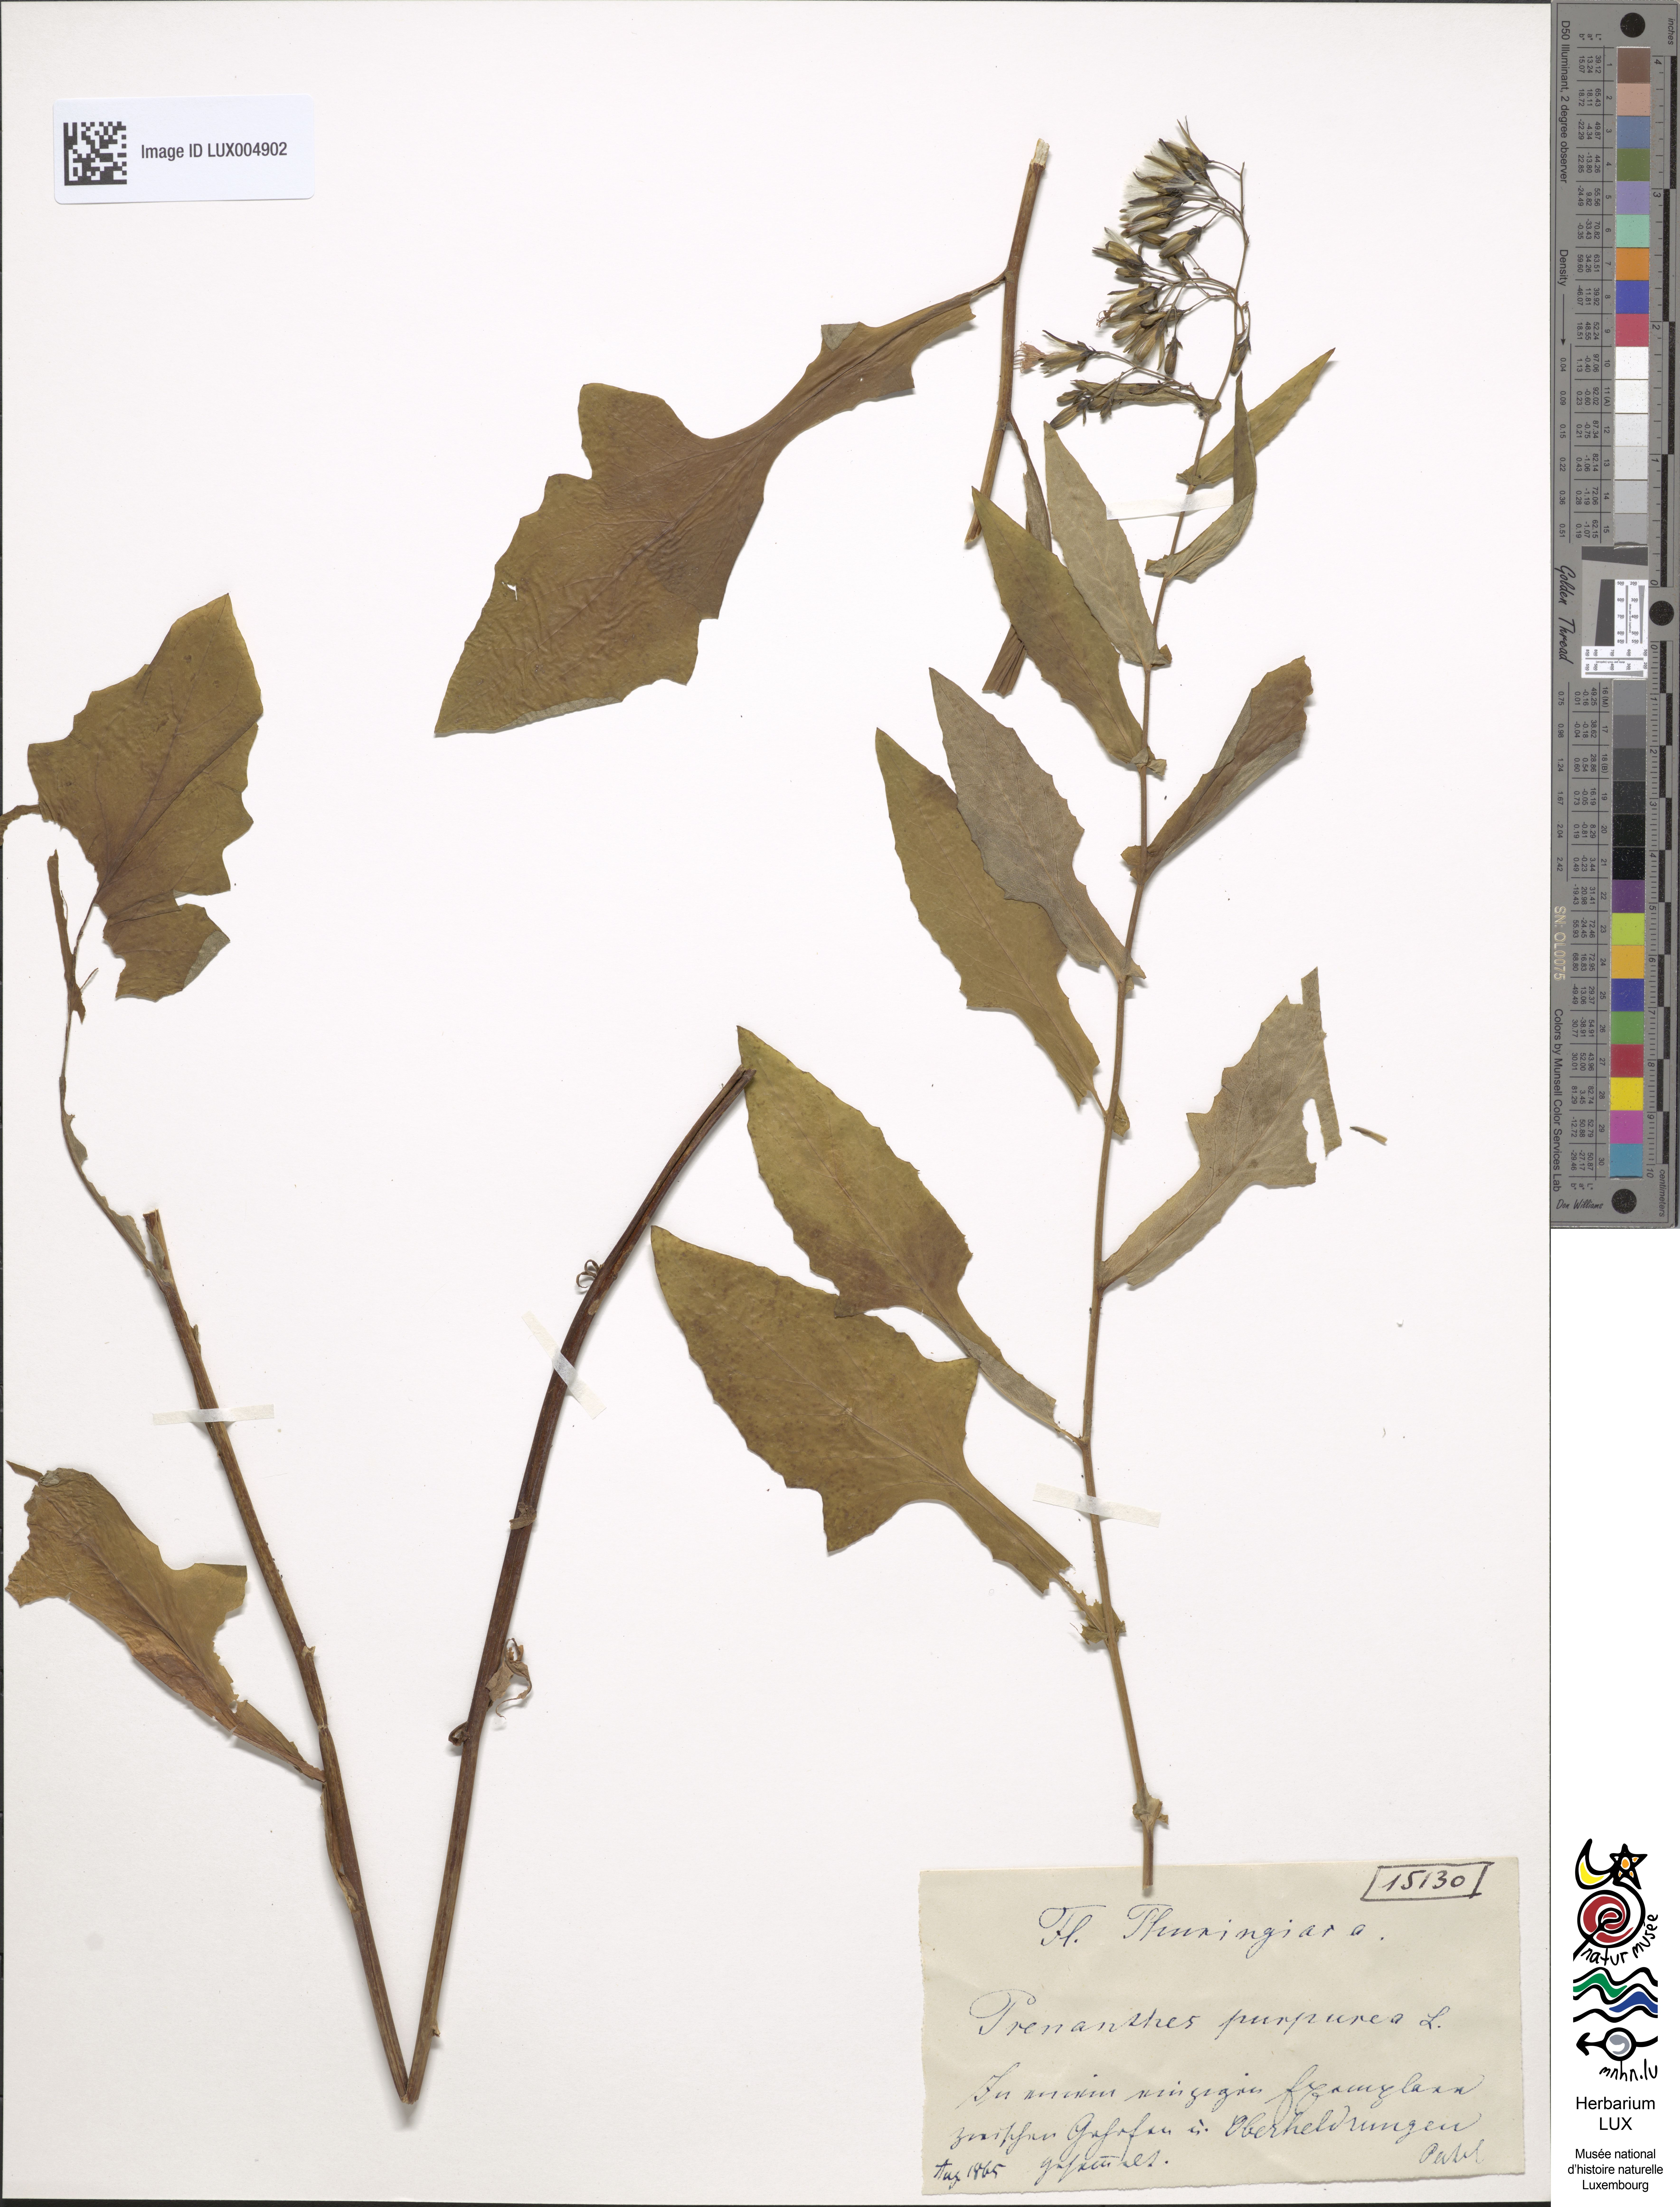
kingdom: Plantae
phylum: Tracheophyta
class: Magnoliopsida
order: Asterales
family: Asteraceae
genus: Prenanthes
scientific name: Prenanthes purpurea
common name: Purple lettuce
